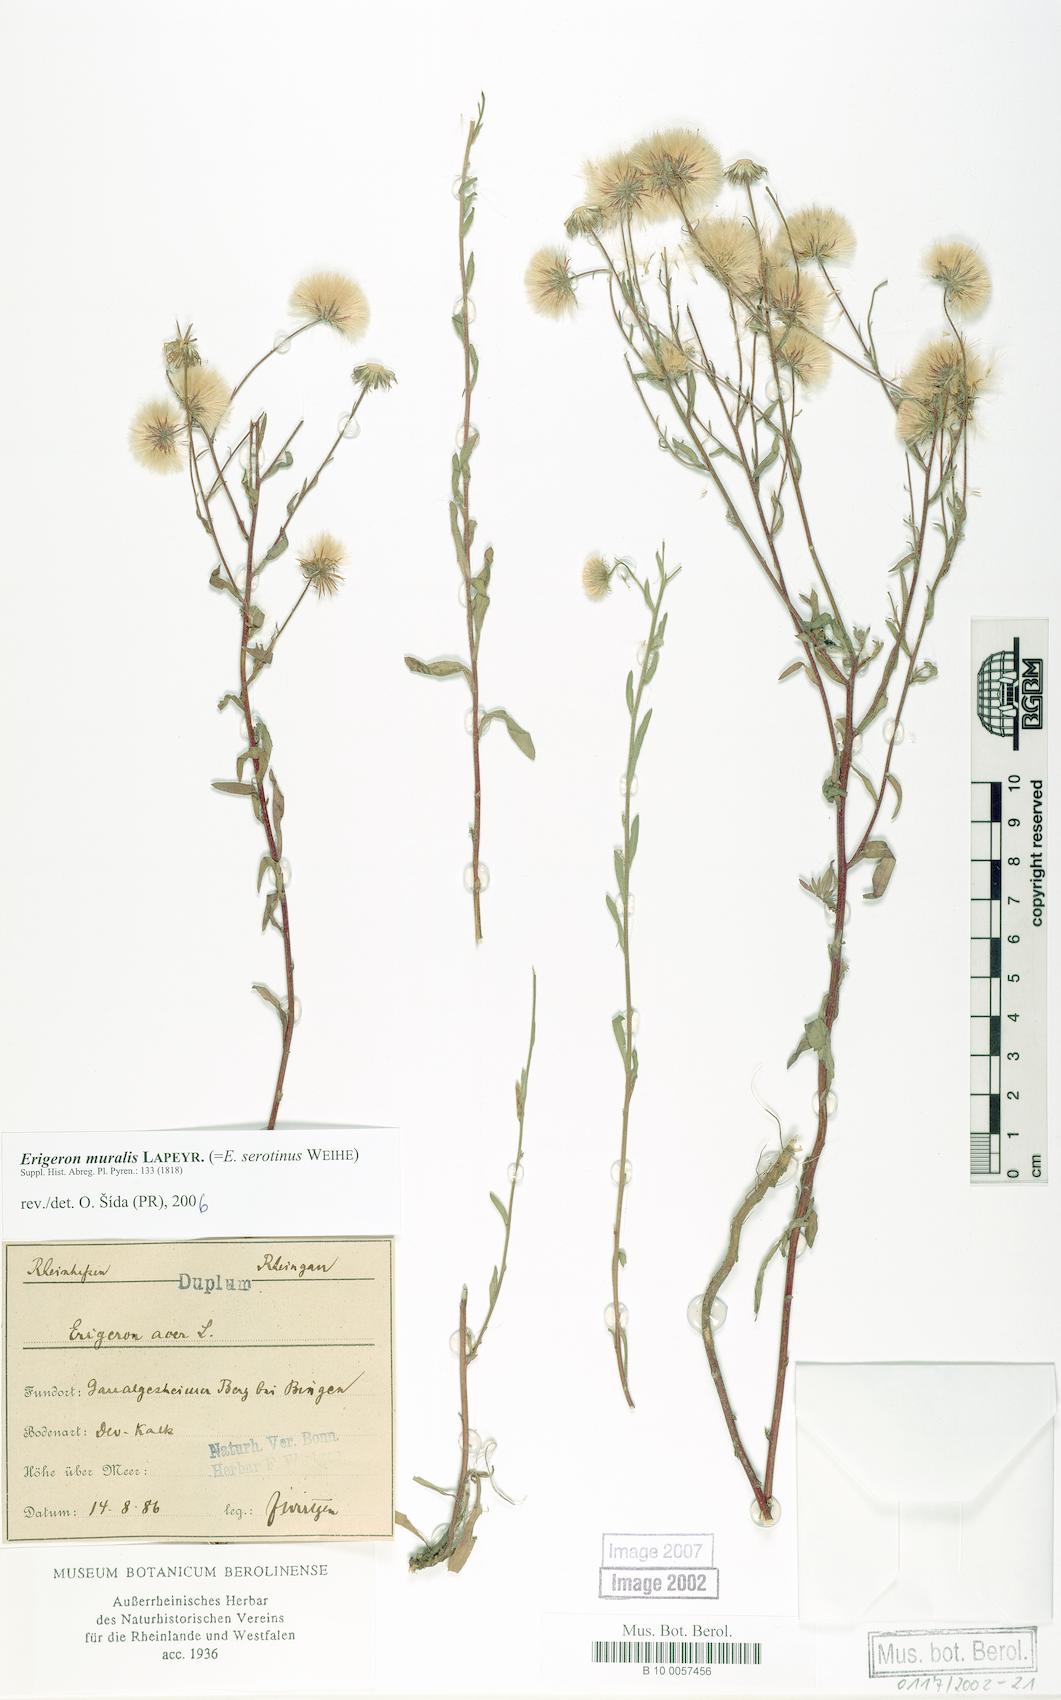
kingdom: Plantae
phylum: Tracheophyta
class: Magnoliopsida
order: Asterales
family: Asteraceae
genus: Erigeron
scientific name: Erigeron muralis
